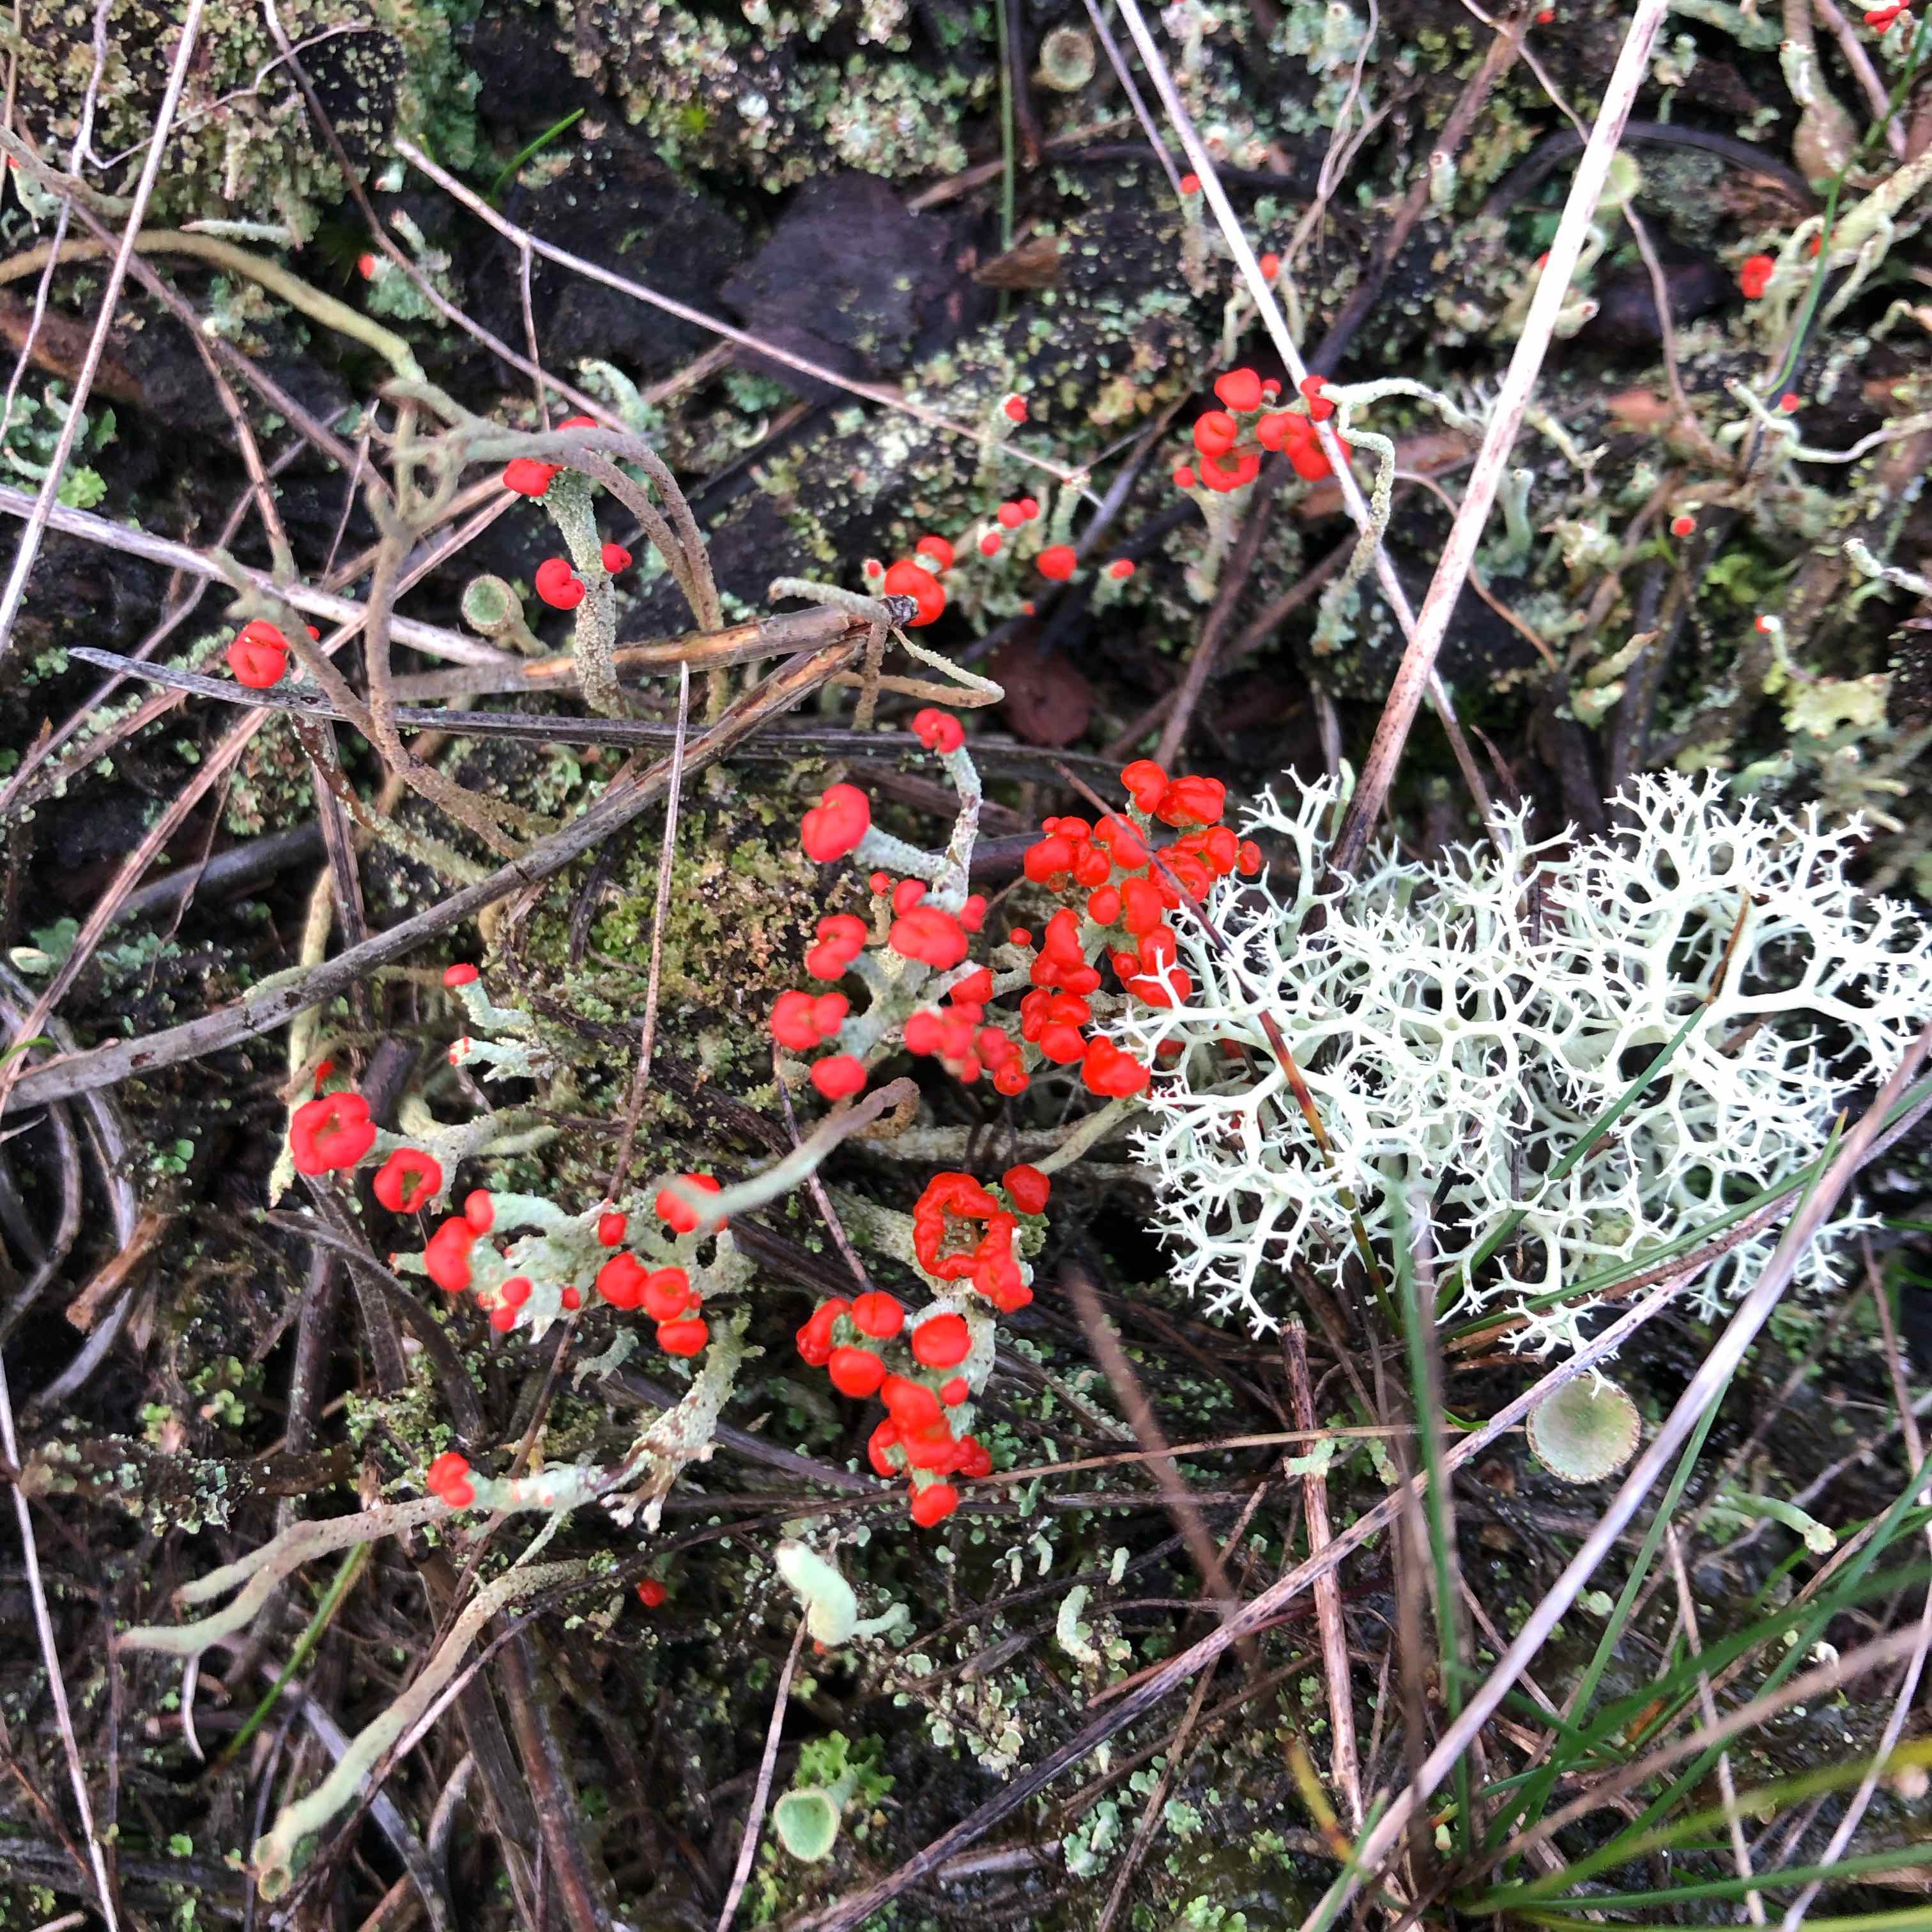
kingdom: Fungi
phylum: Ascomycota
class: Lecanoromycetes
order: Lecanorales
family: Cladoniaceae
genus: Cladonia
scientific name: Cladonia floerkeana
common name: lakrød bægerlav
